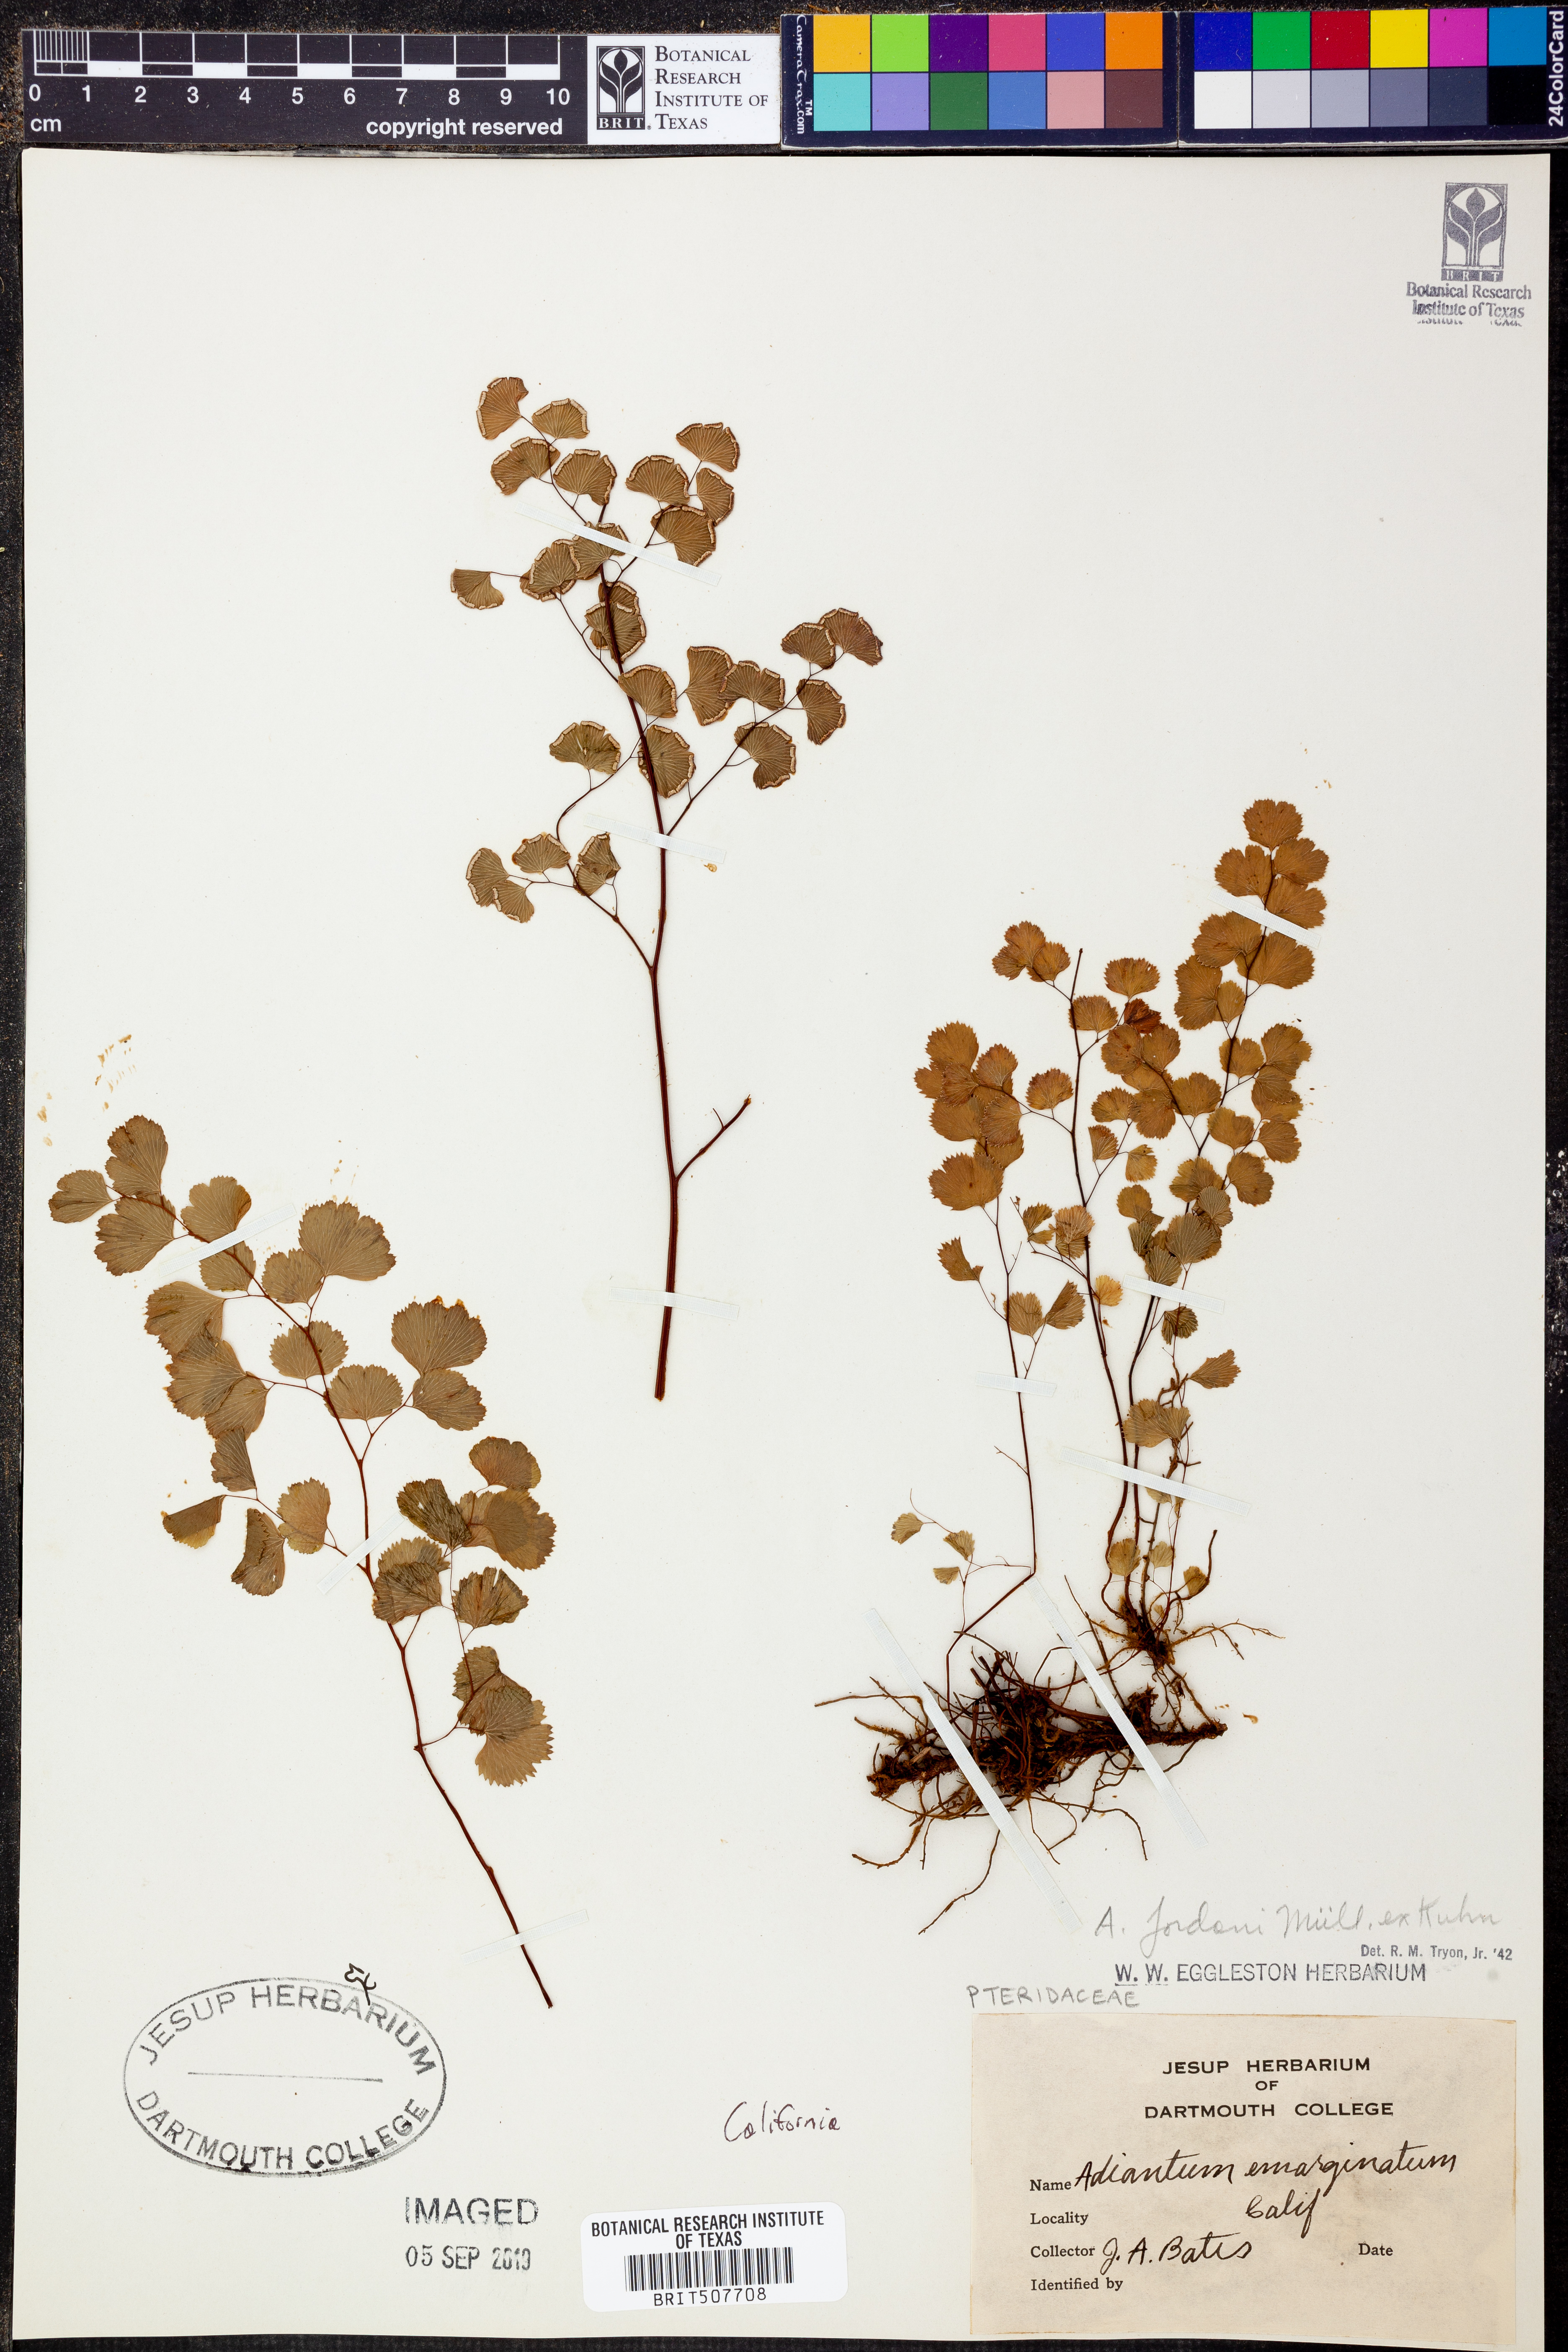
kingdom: Plantae
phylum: Tracheophyta
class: Polypodiopsida
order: Polypodiales
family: Pteridaceae
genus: Adiantum
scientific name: Adiantum jordanii
